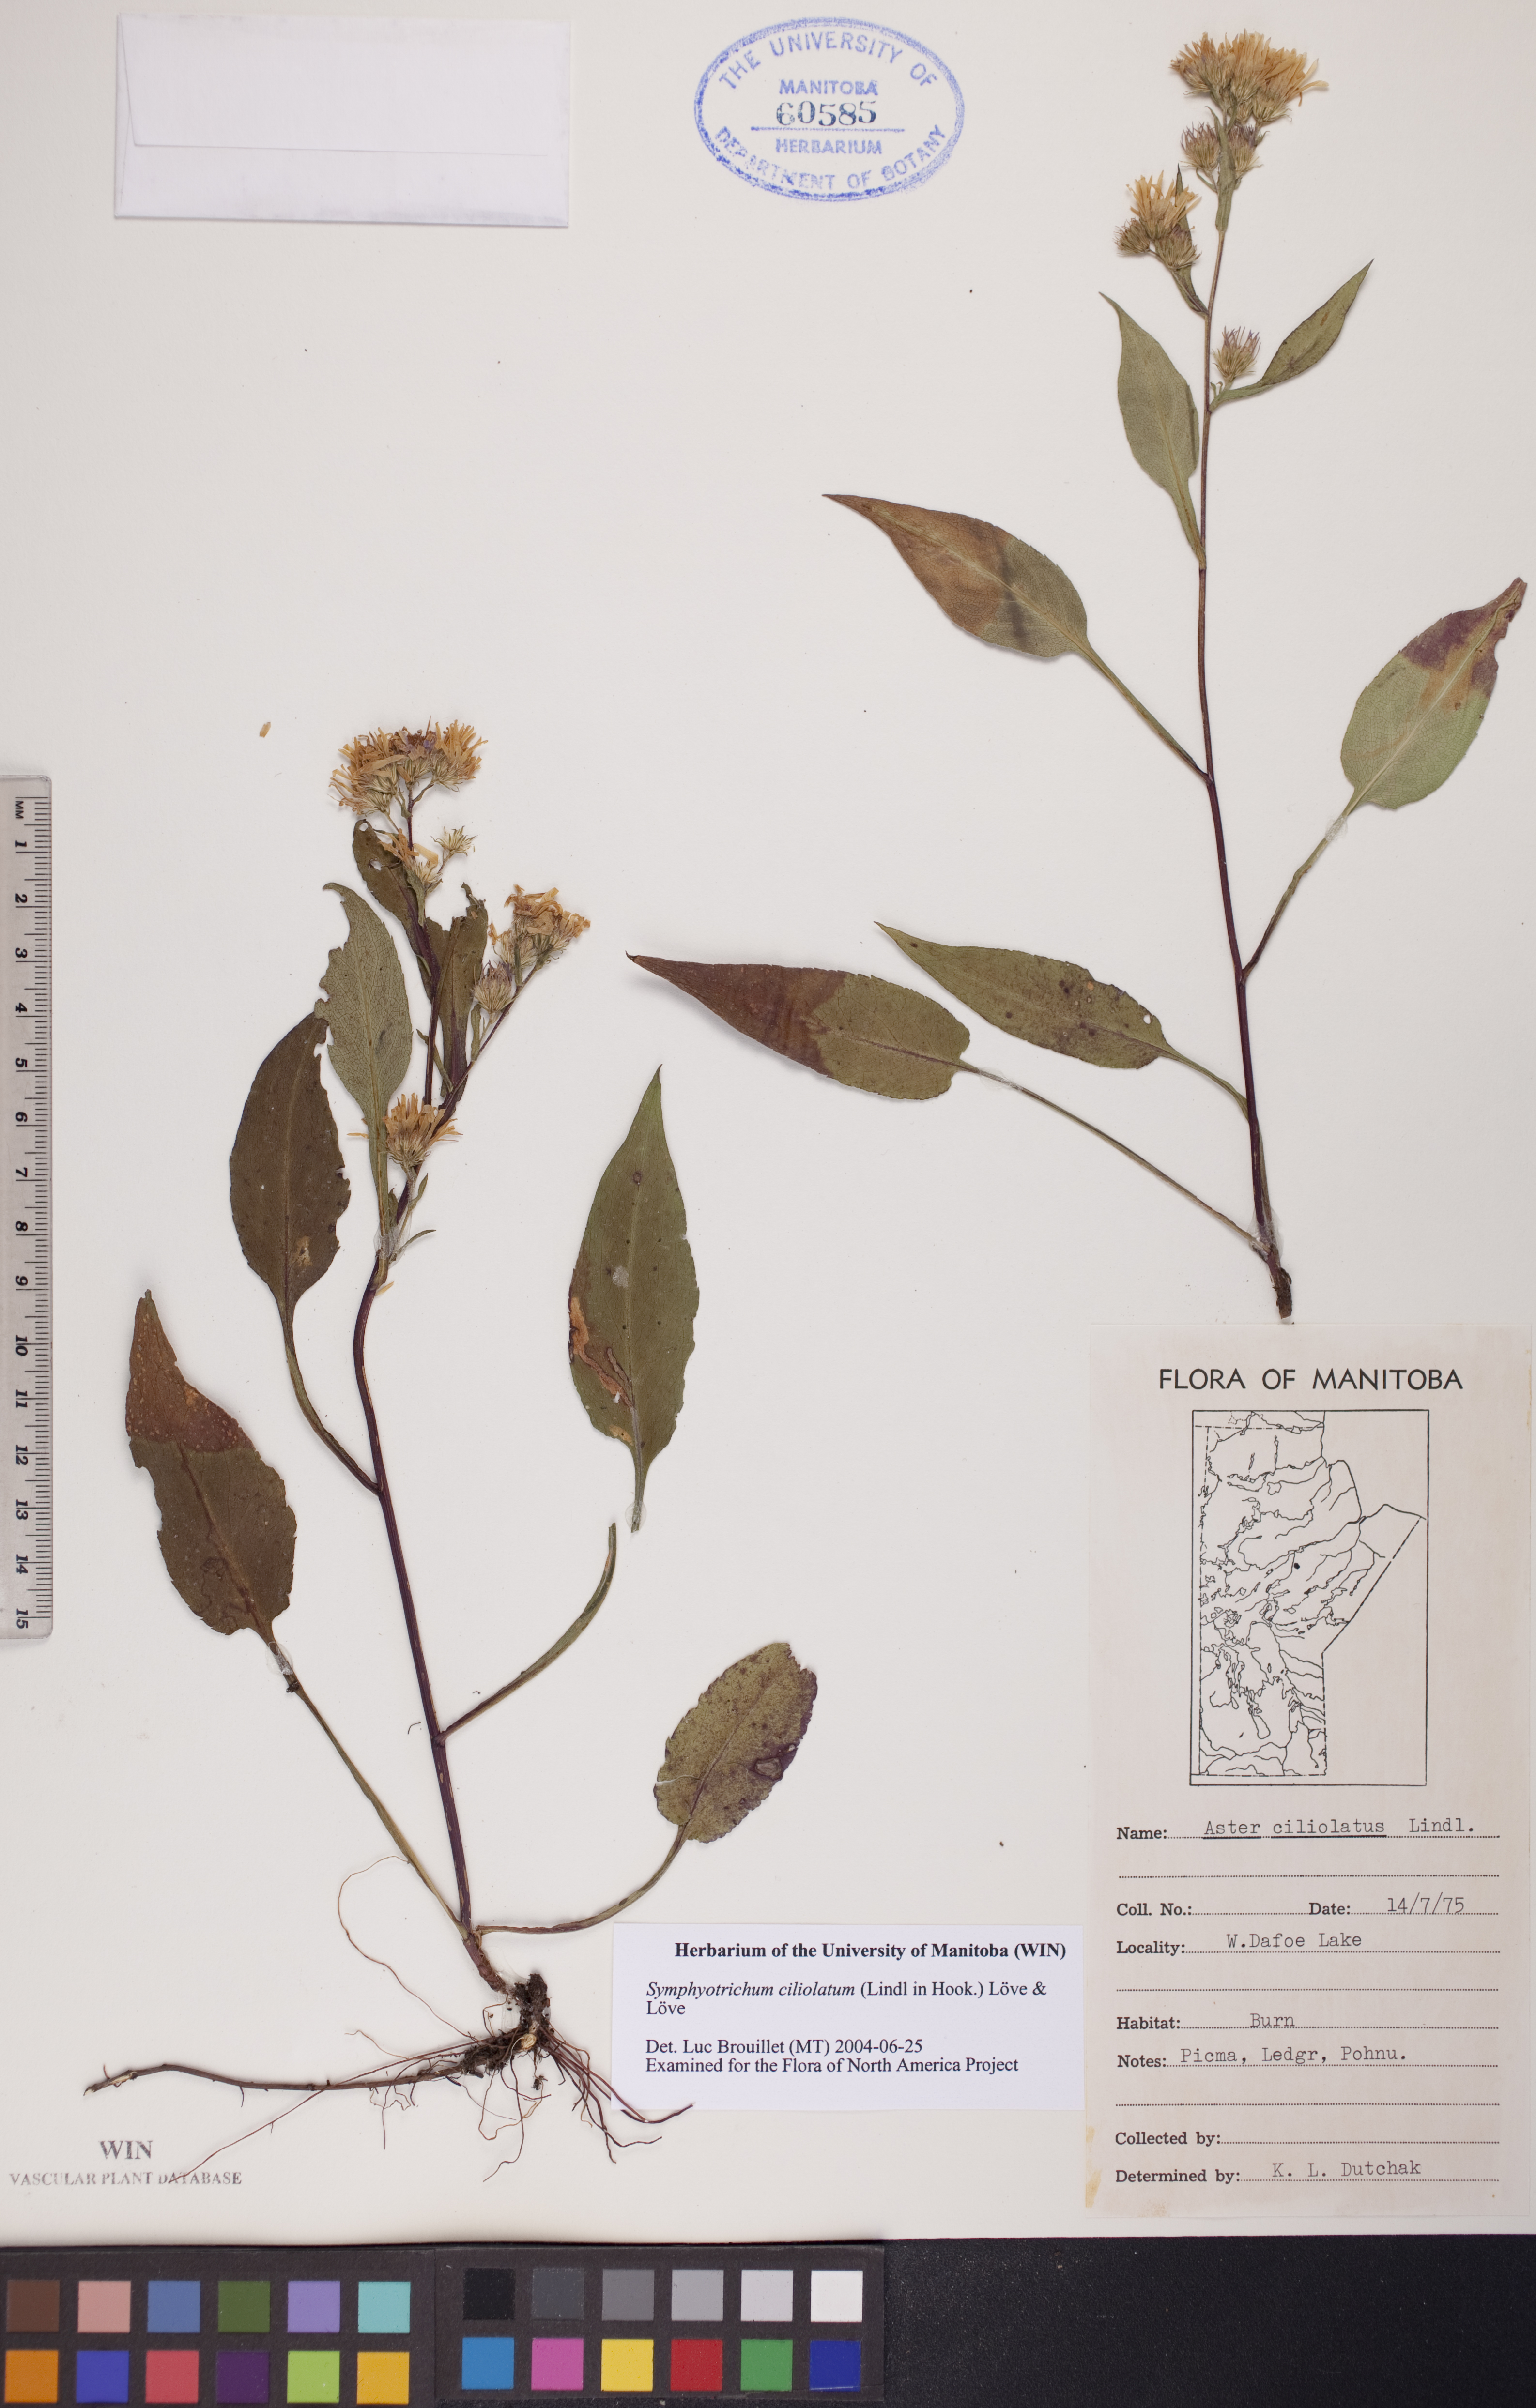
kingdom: Plantae
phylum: Tracheophyta
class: Magnoliopsida
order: Asterales
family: Asteraceae
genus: Symphyotrichum
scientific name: Symphyotrichum ciliolatum
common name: Fringed blue aster
